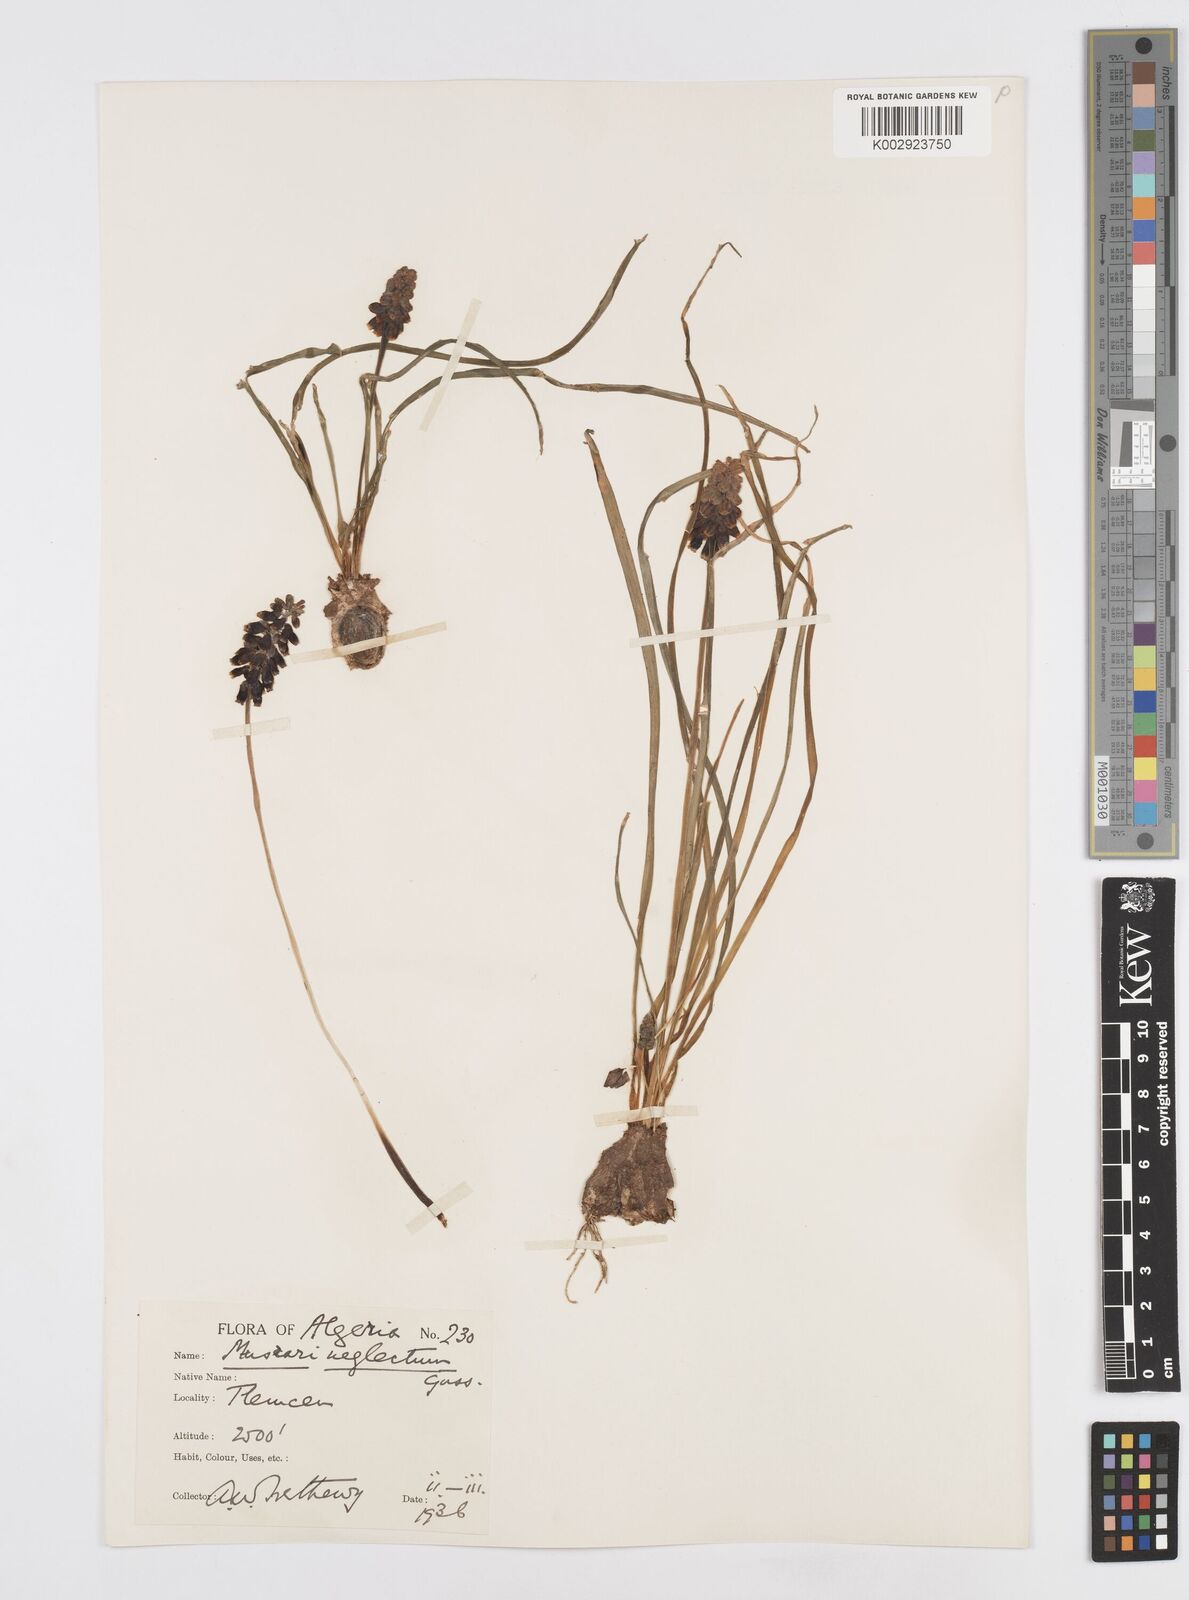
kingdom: Plantae
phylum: Tracheophyta
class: Liliopsida
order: Asparagales
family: Asparagaceae
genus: Muscari
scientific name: Muscari neglectum
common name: Grape-hyacinth
